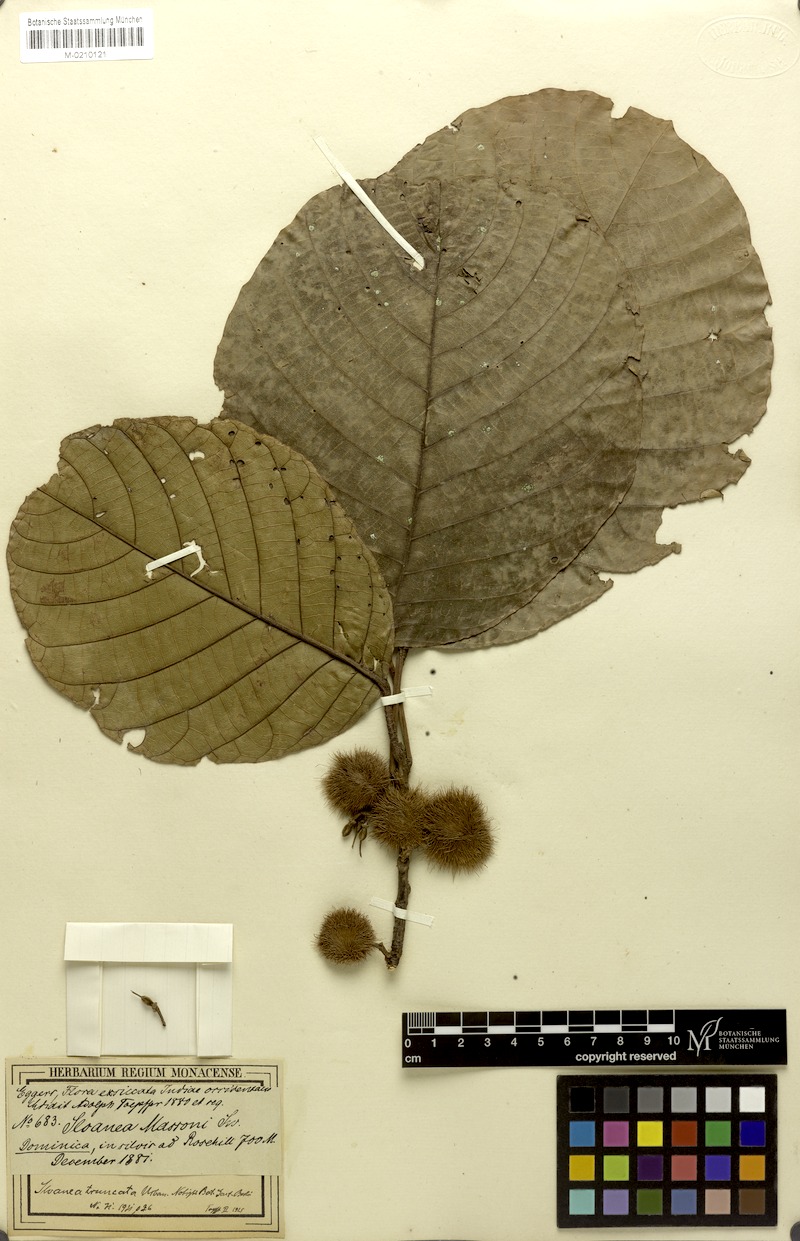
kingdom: Plantae
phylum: Tracheophyta
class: Magnoliopsida
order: Oxalidales
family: Elaeocarpaceae
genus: Sloanea
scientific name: Sloanea tuerckheimii
